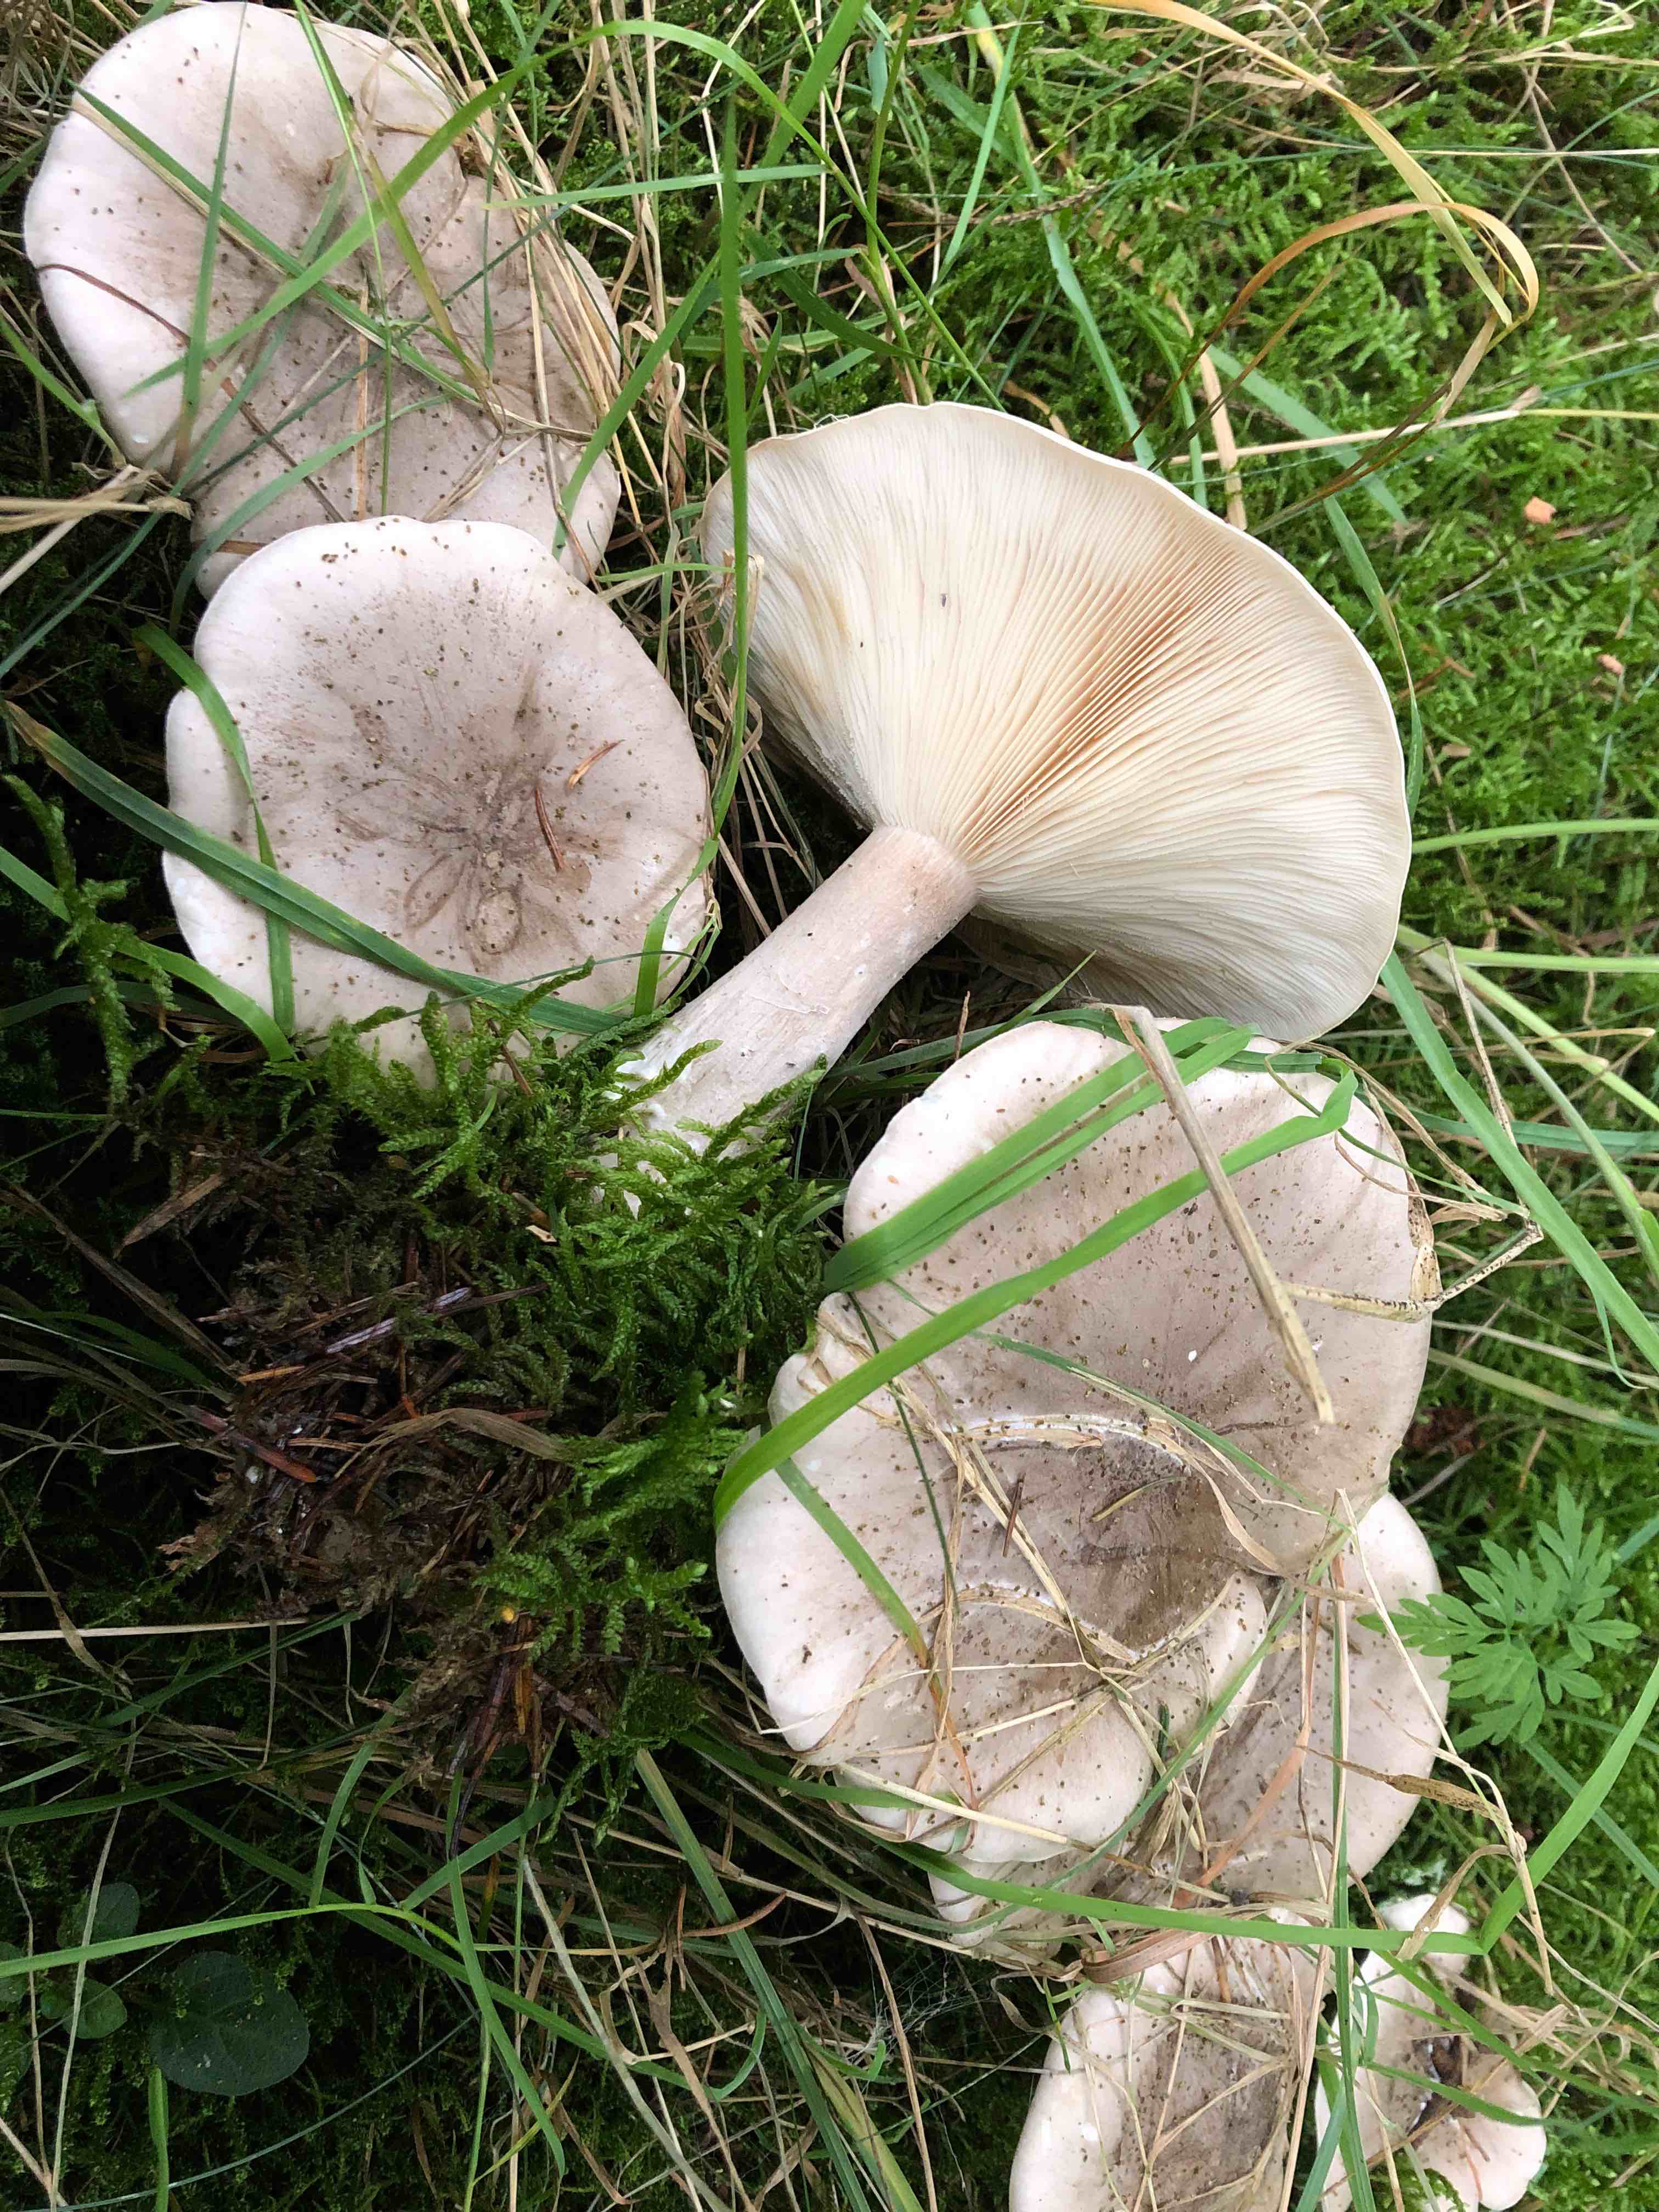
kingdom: Fungi
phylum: Basidiomycota
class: Agaricomycetes
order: Agaricales
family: Tricholomataceae
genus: Clitocybe
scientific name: Clitocybe nebularis
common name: tåge-tragthat
